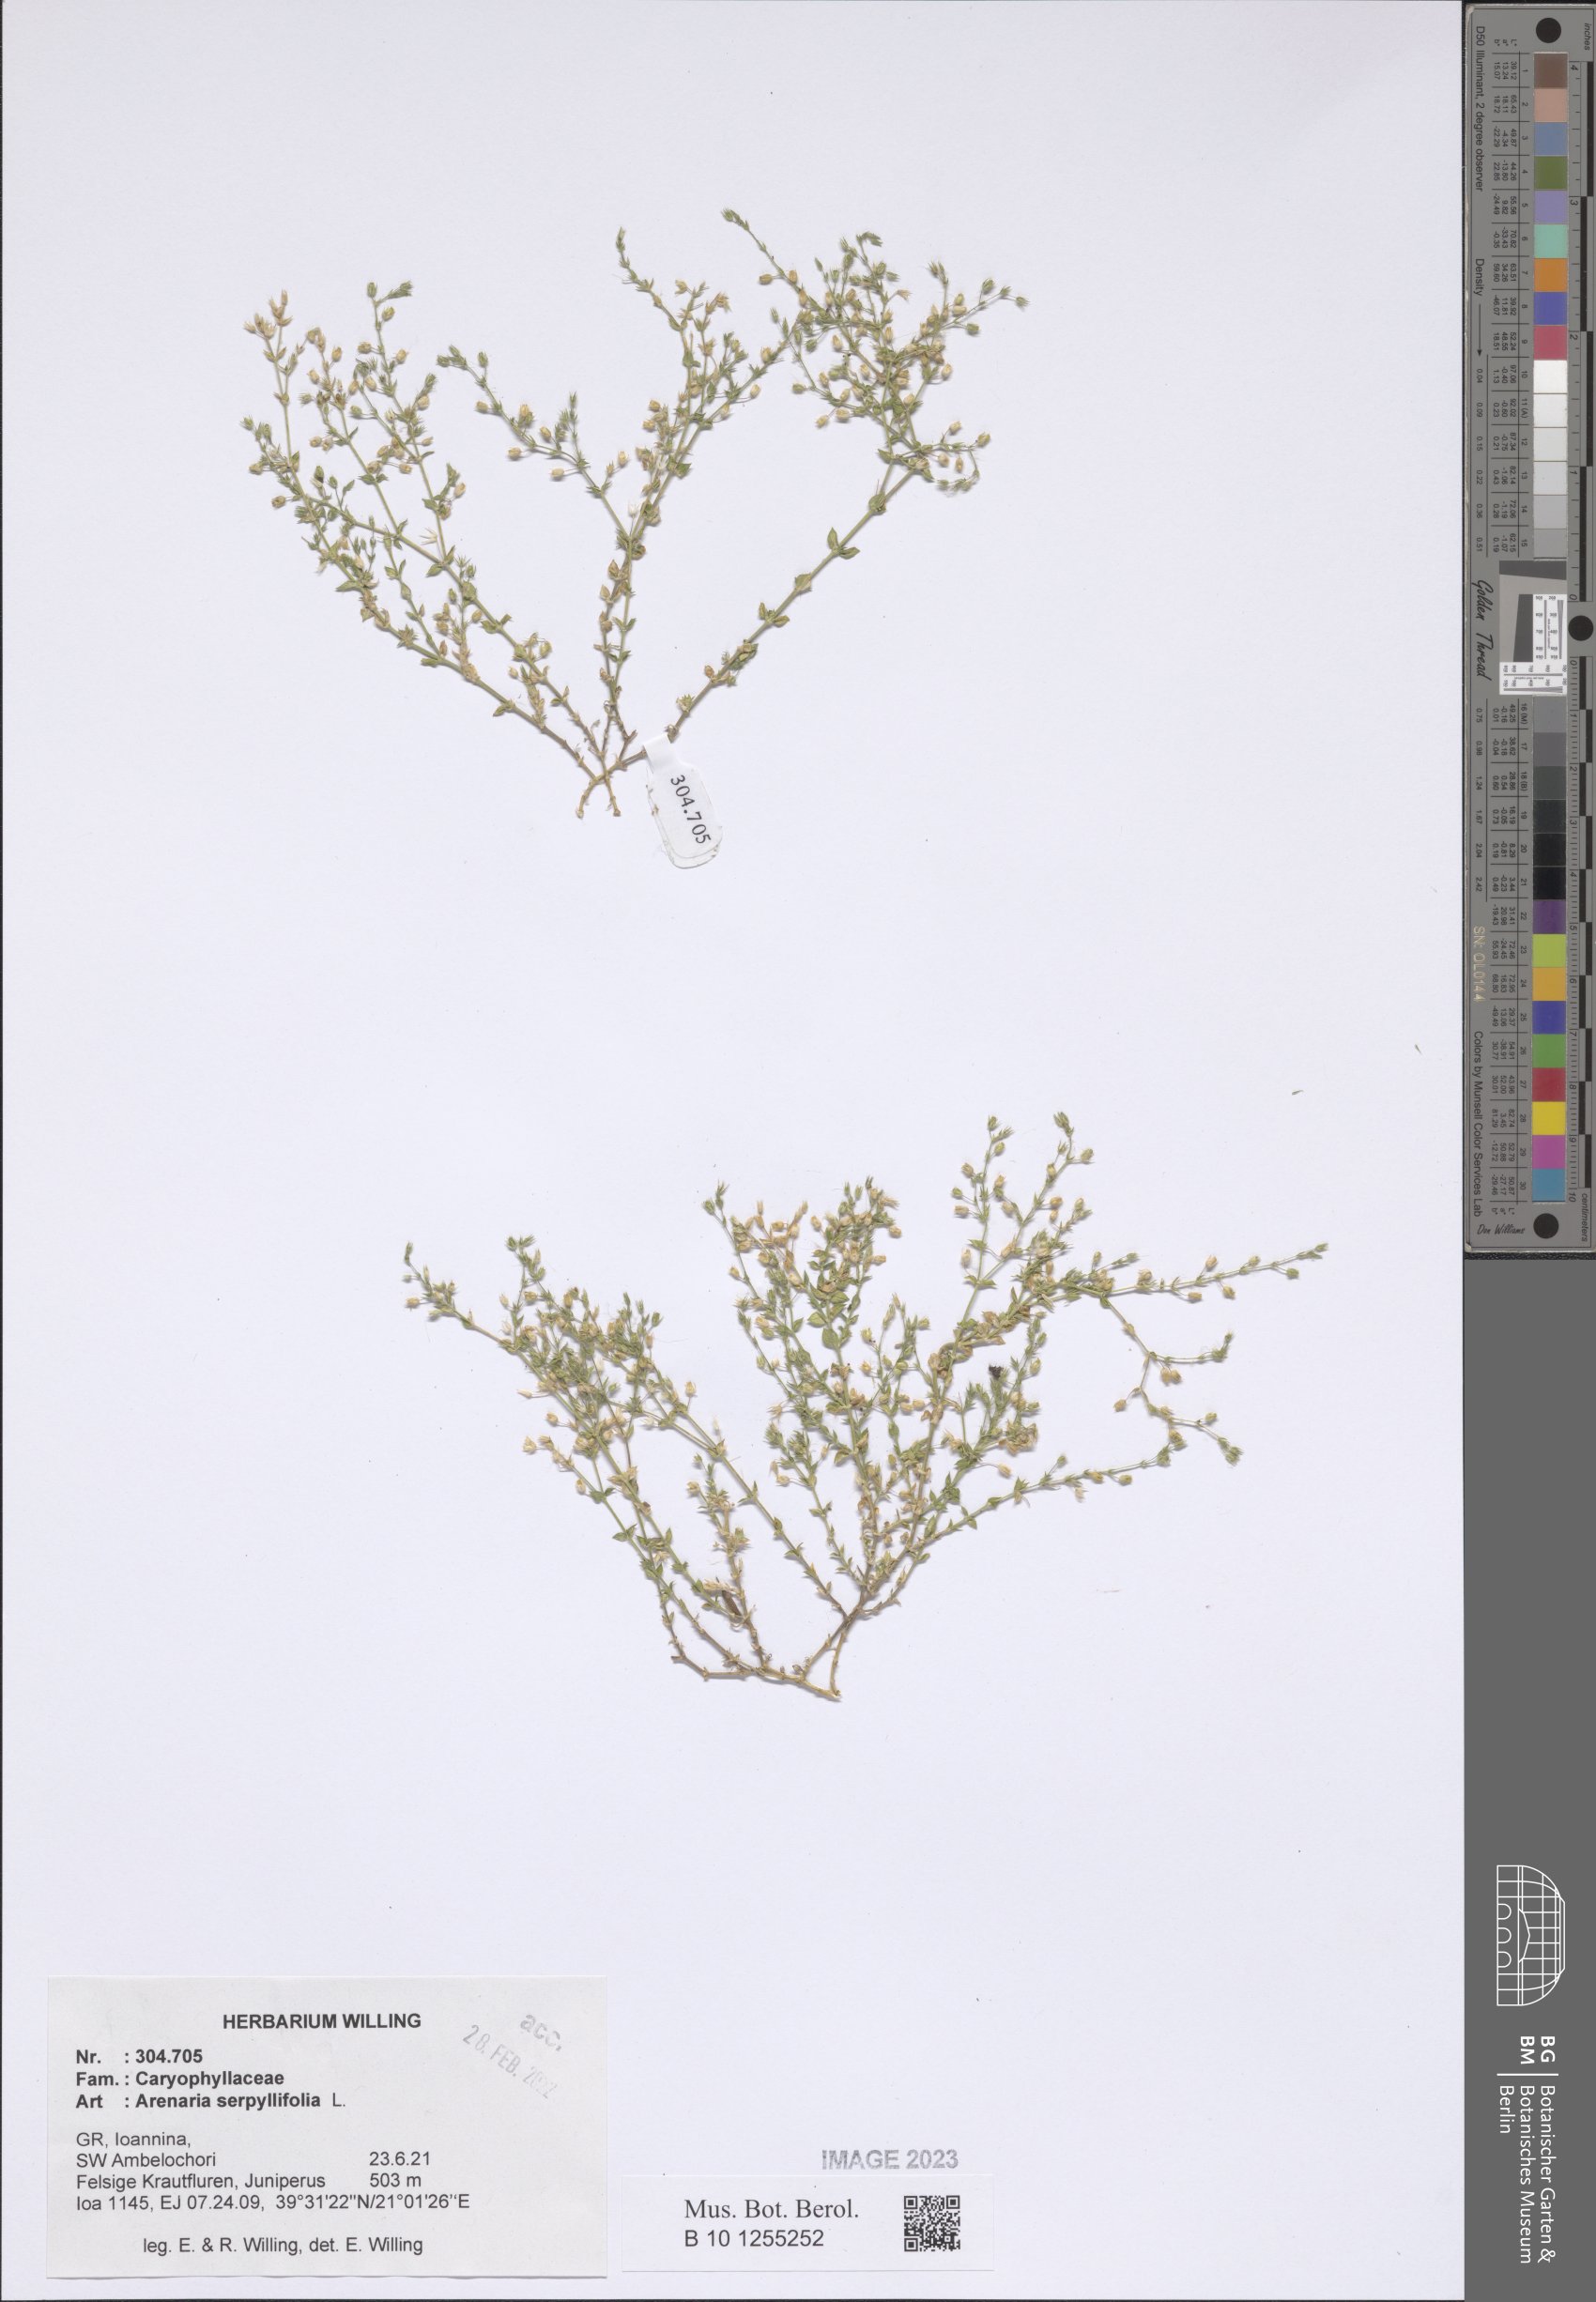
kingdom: Plantae
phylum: Tracheophyta
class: Magnoliopsida
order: Caryophyllales
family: Caryophyllaceae
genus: Arenaria
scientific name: Arenaria serpyllifolia
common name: Thyme-leaved sandwort
